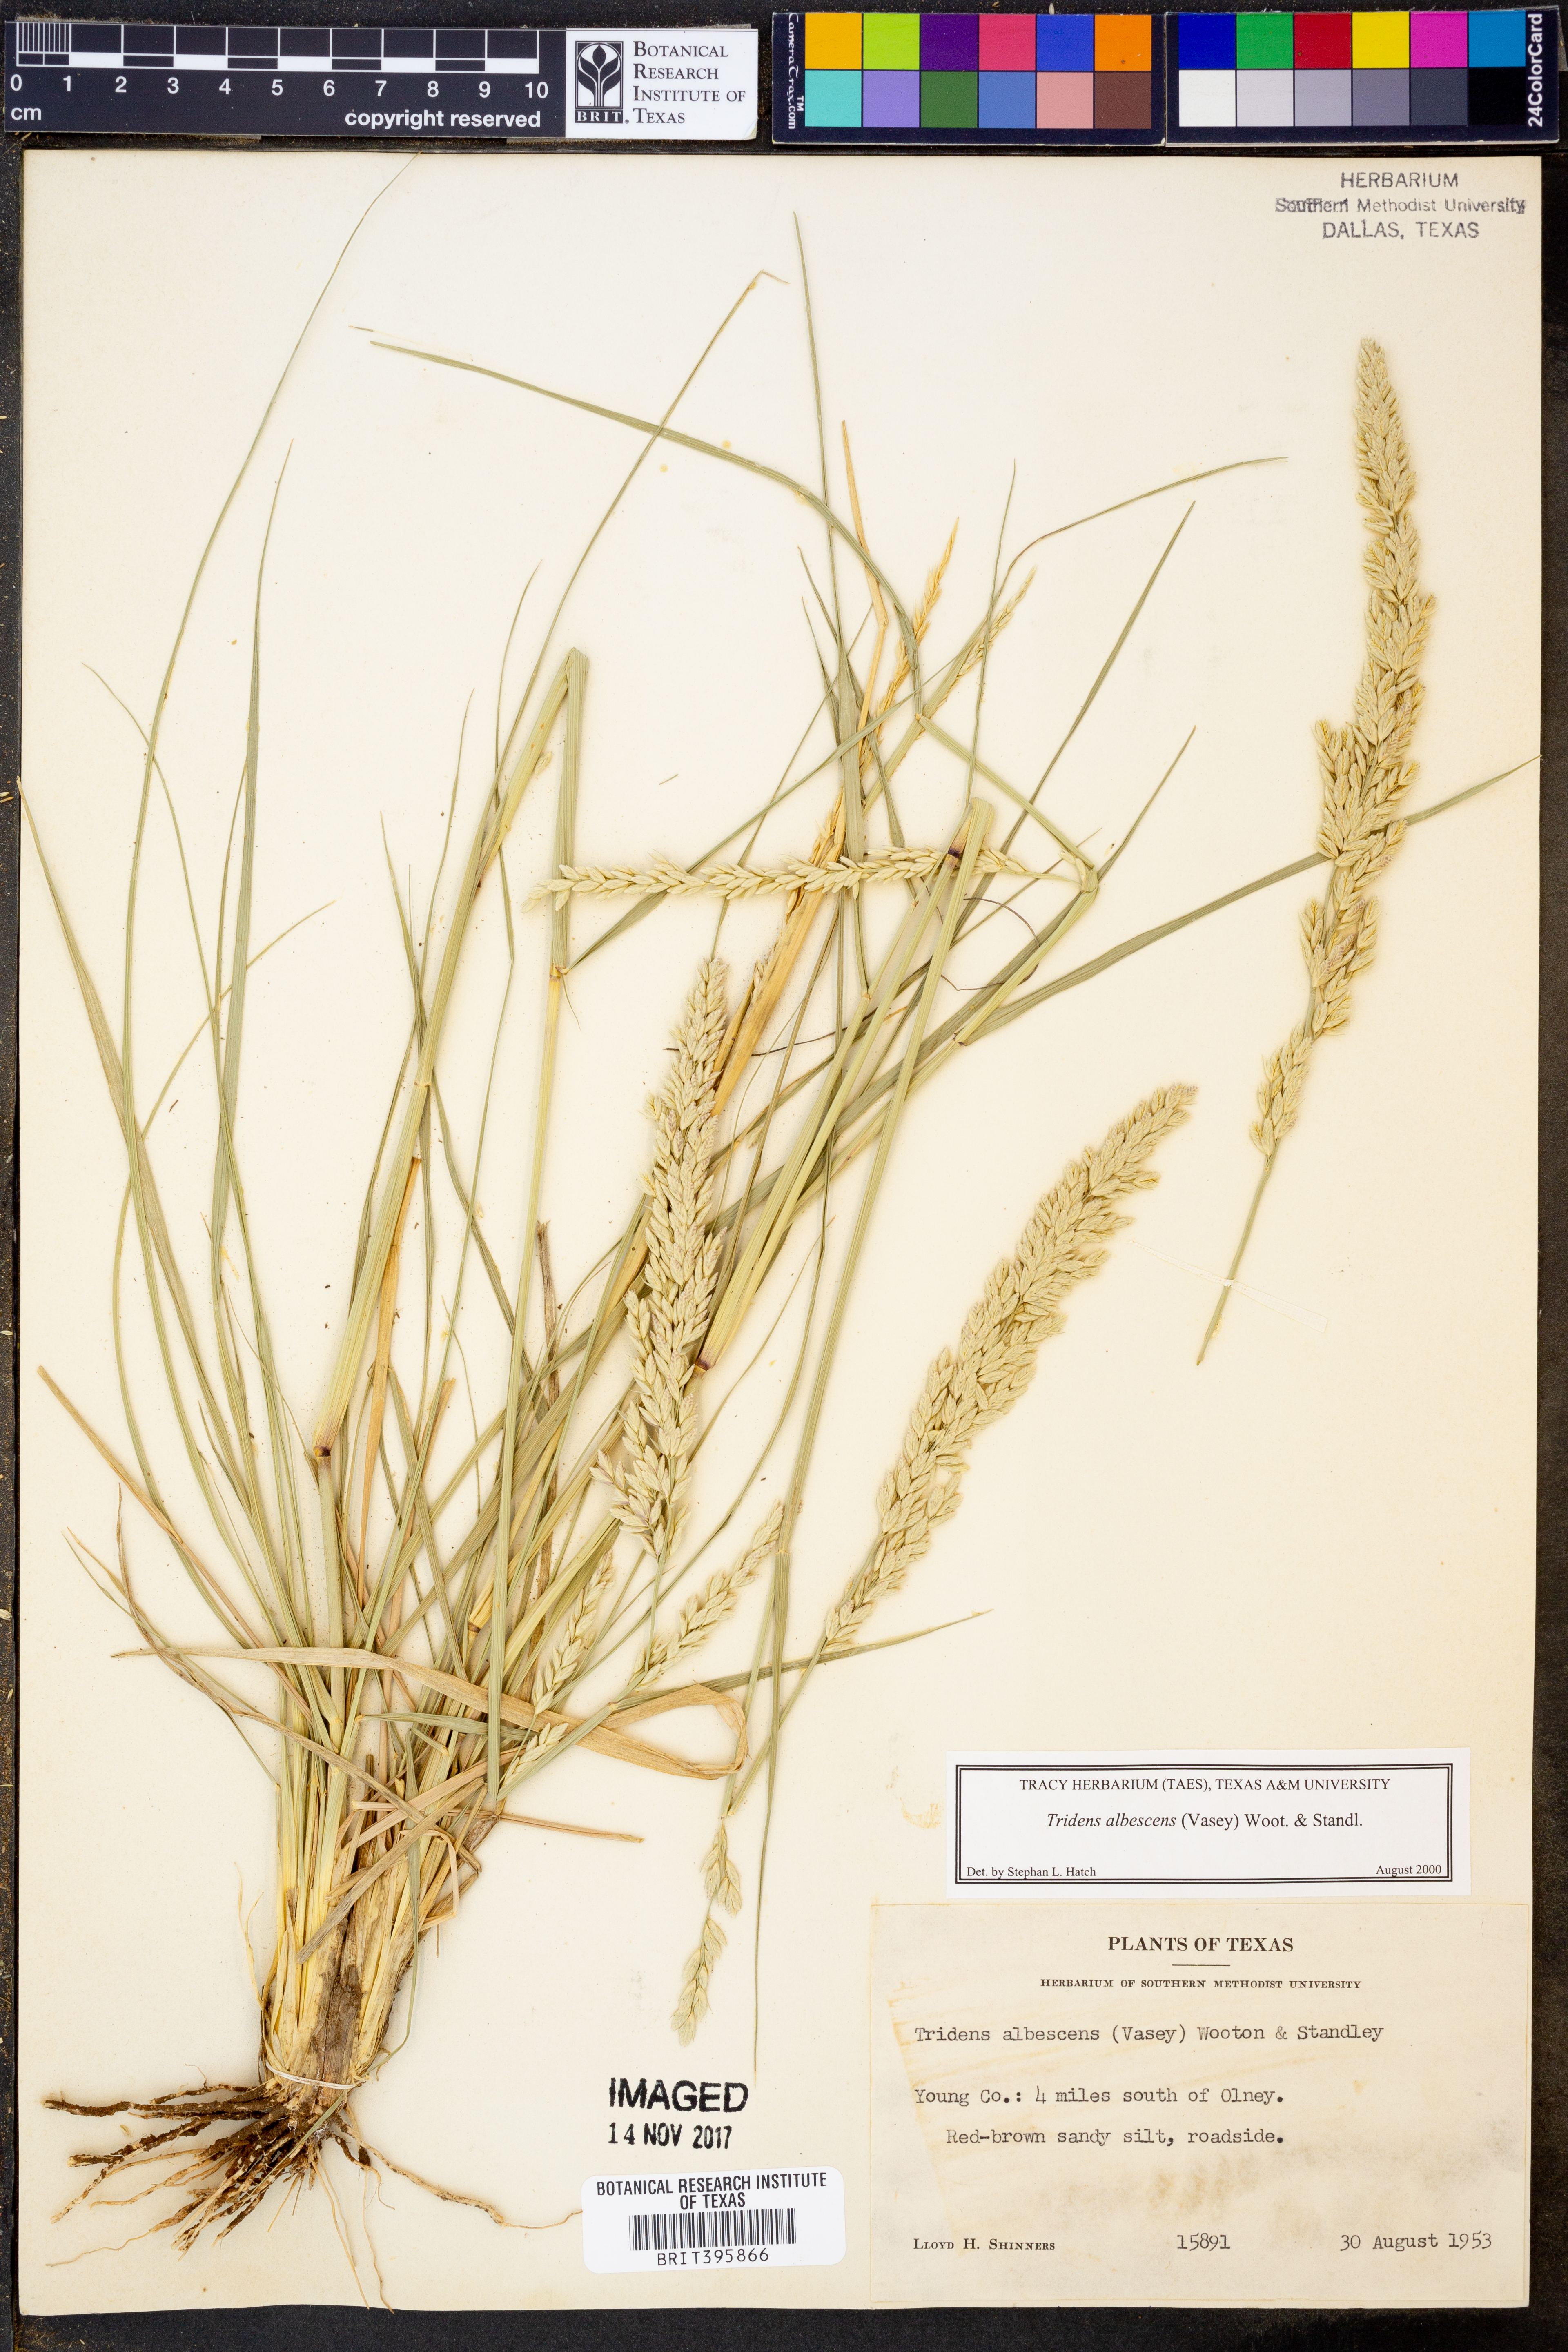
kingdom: Plantae
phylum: Tracheophyta
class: Liliopsida
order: Poales
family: Poaceae
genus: Tridens
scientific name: Tridens albescens
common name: White tridens
